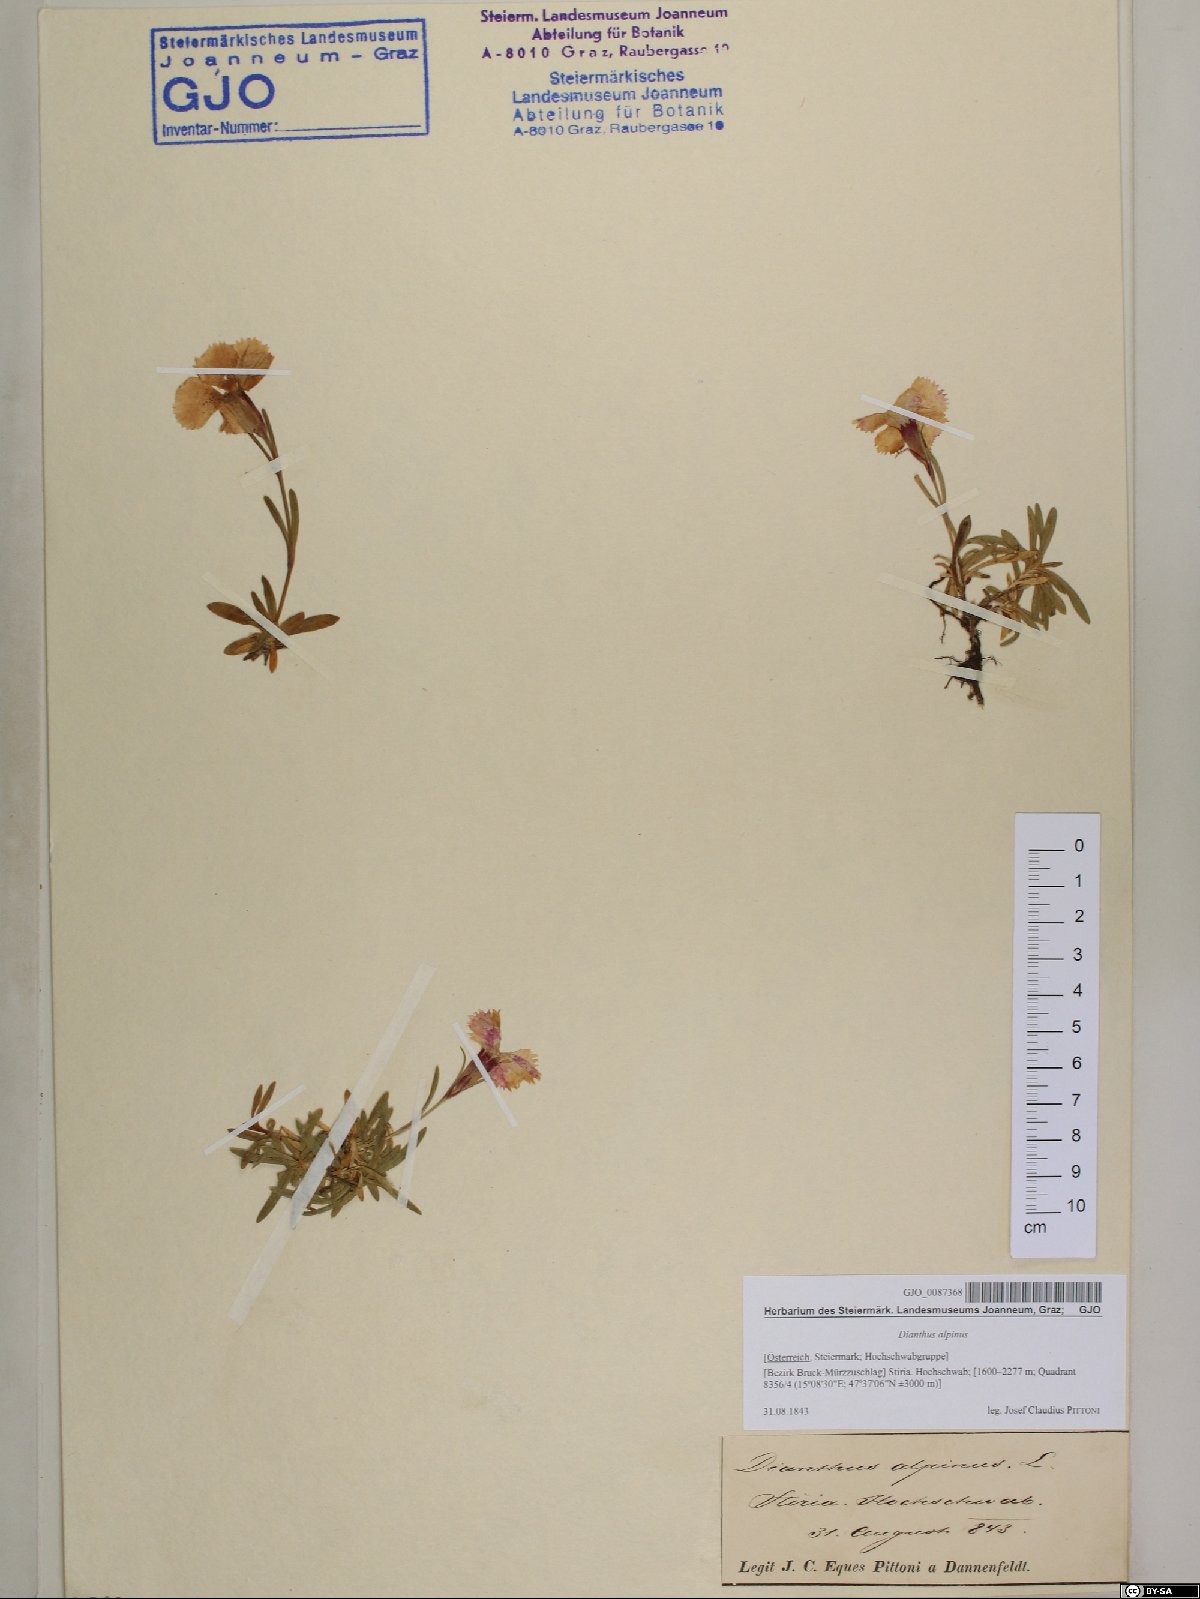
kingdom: Plantae
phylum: Tracheophyta
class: Magnoliopsida
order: Caryophyllales
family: Caryophyllaceae
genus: Dianthus
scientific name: Dianthus alpinus
